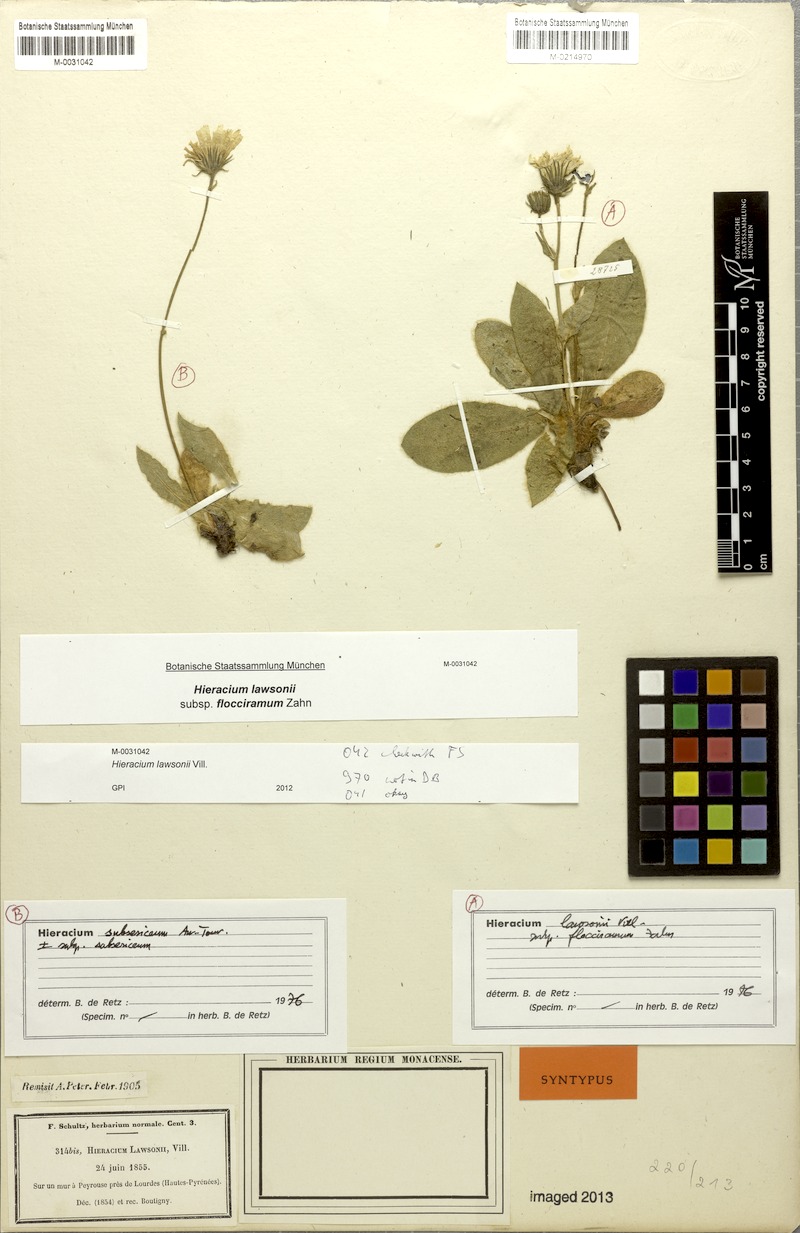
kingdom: Plantae
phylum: Tracheophyta
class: Magnoliopsida
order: Asterales
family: Asteraceae
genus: Hieracium
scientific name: Hieracium benascanum
